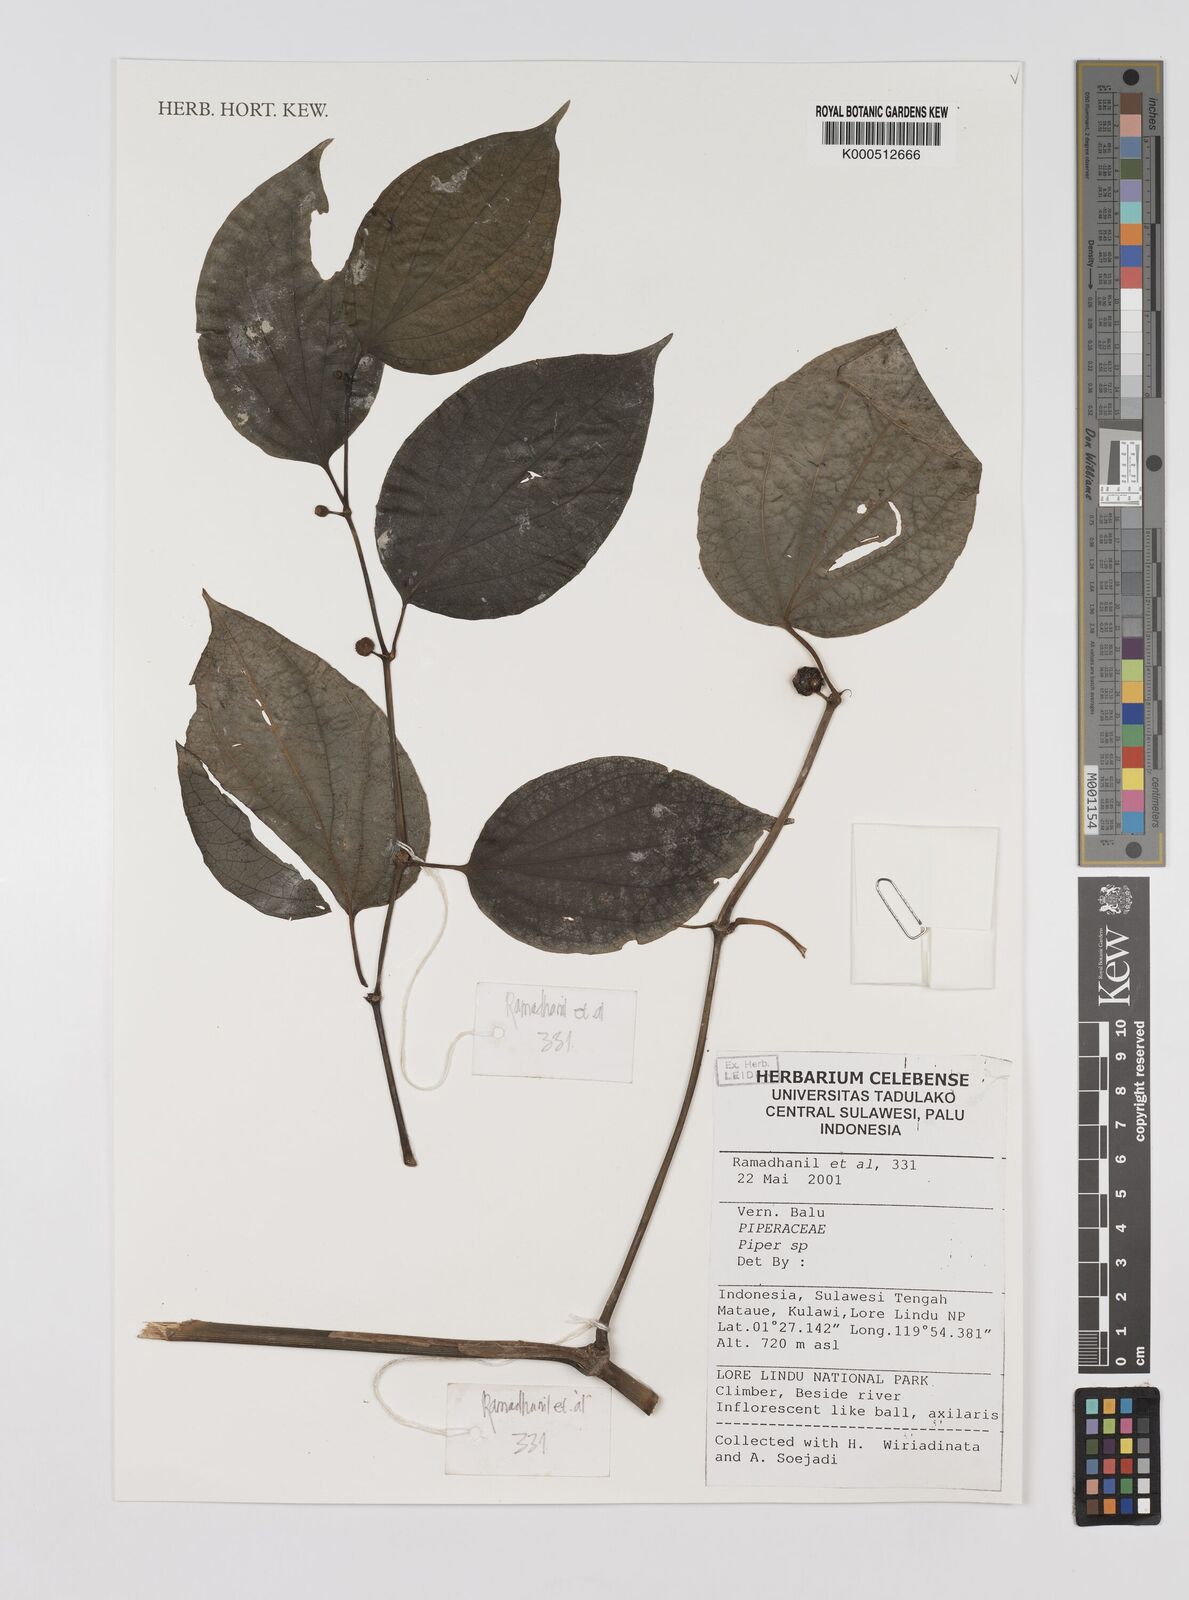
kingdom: Plantae
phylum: Tracheophyta
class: Magnoliopsida
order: Piperales
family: Piperaceae
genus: Piper
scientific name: Piper
